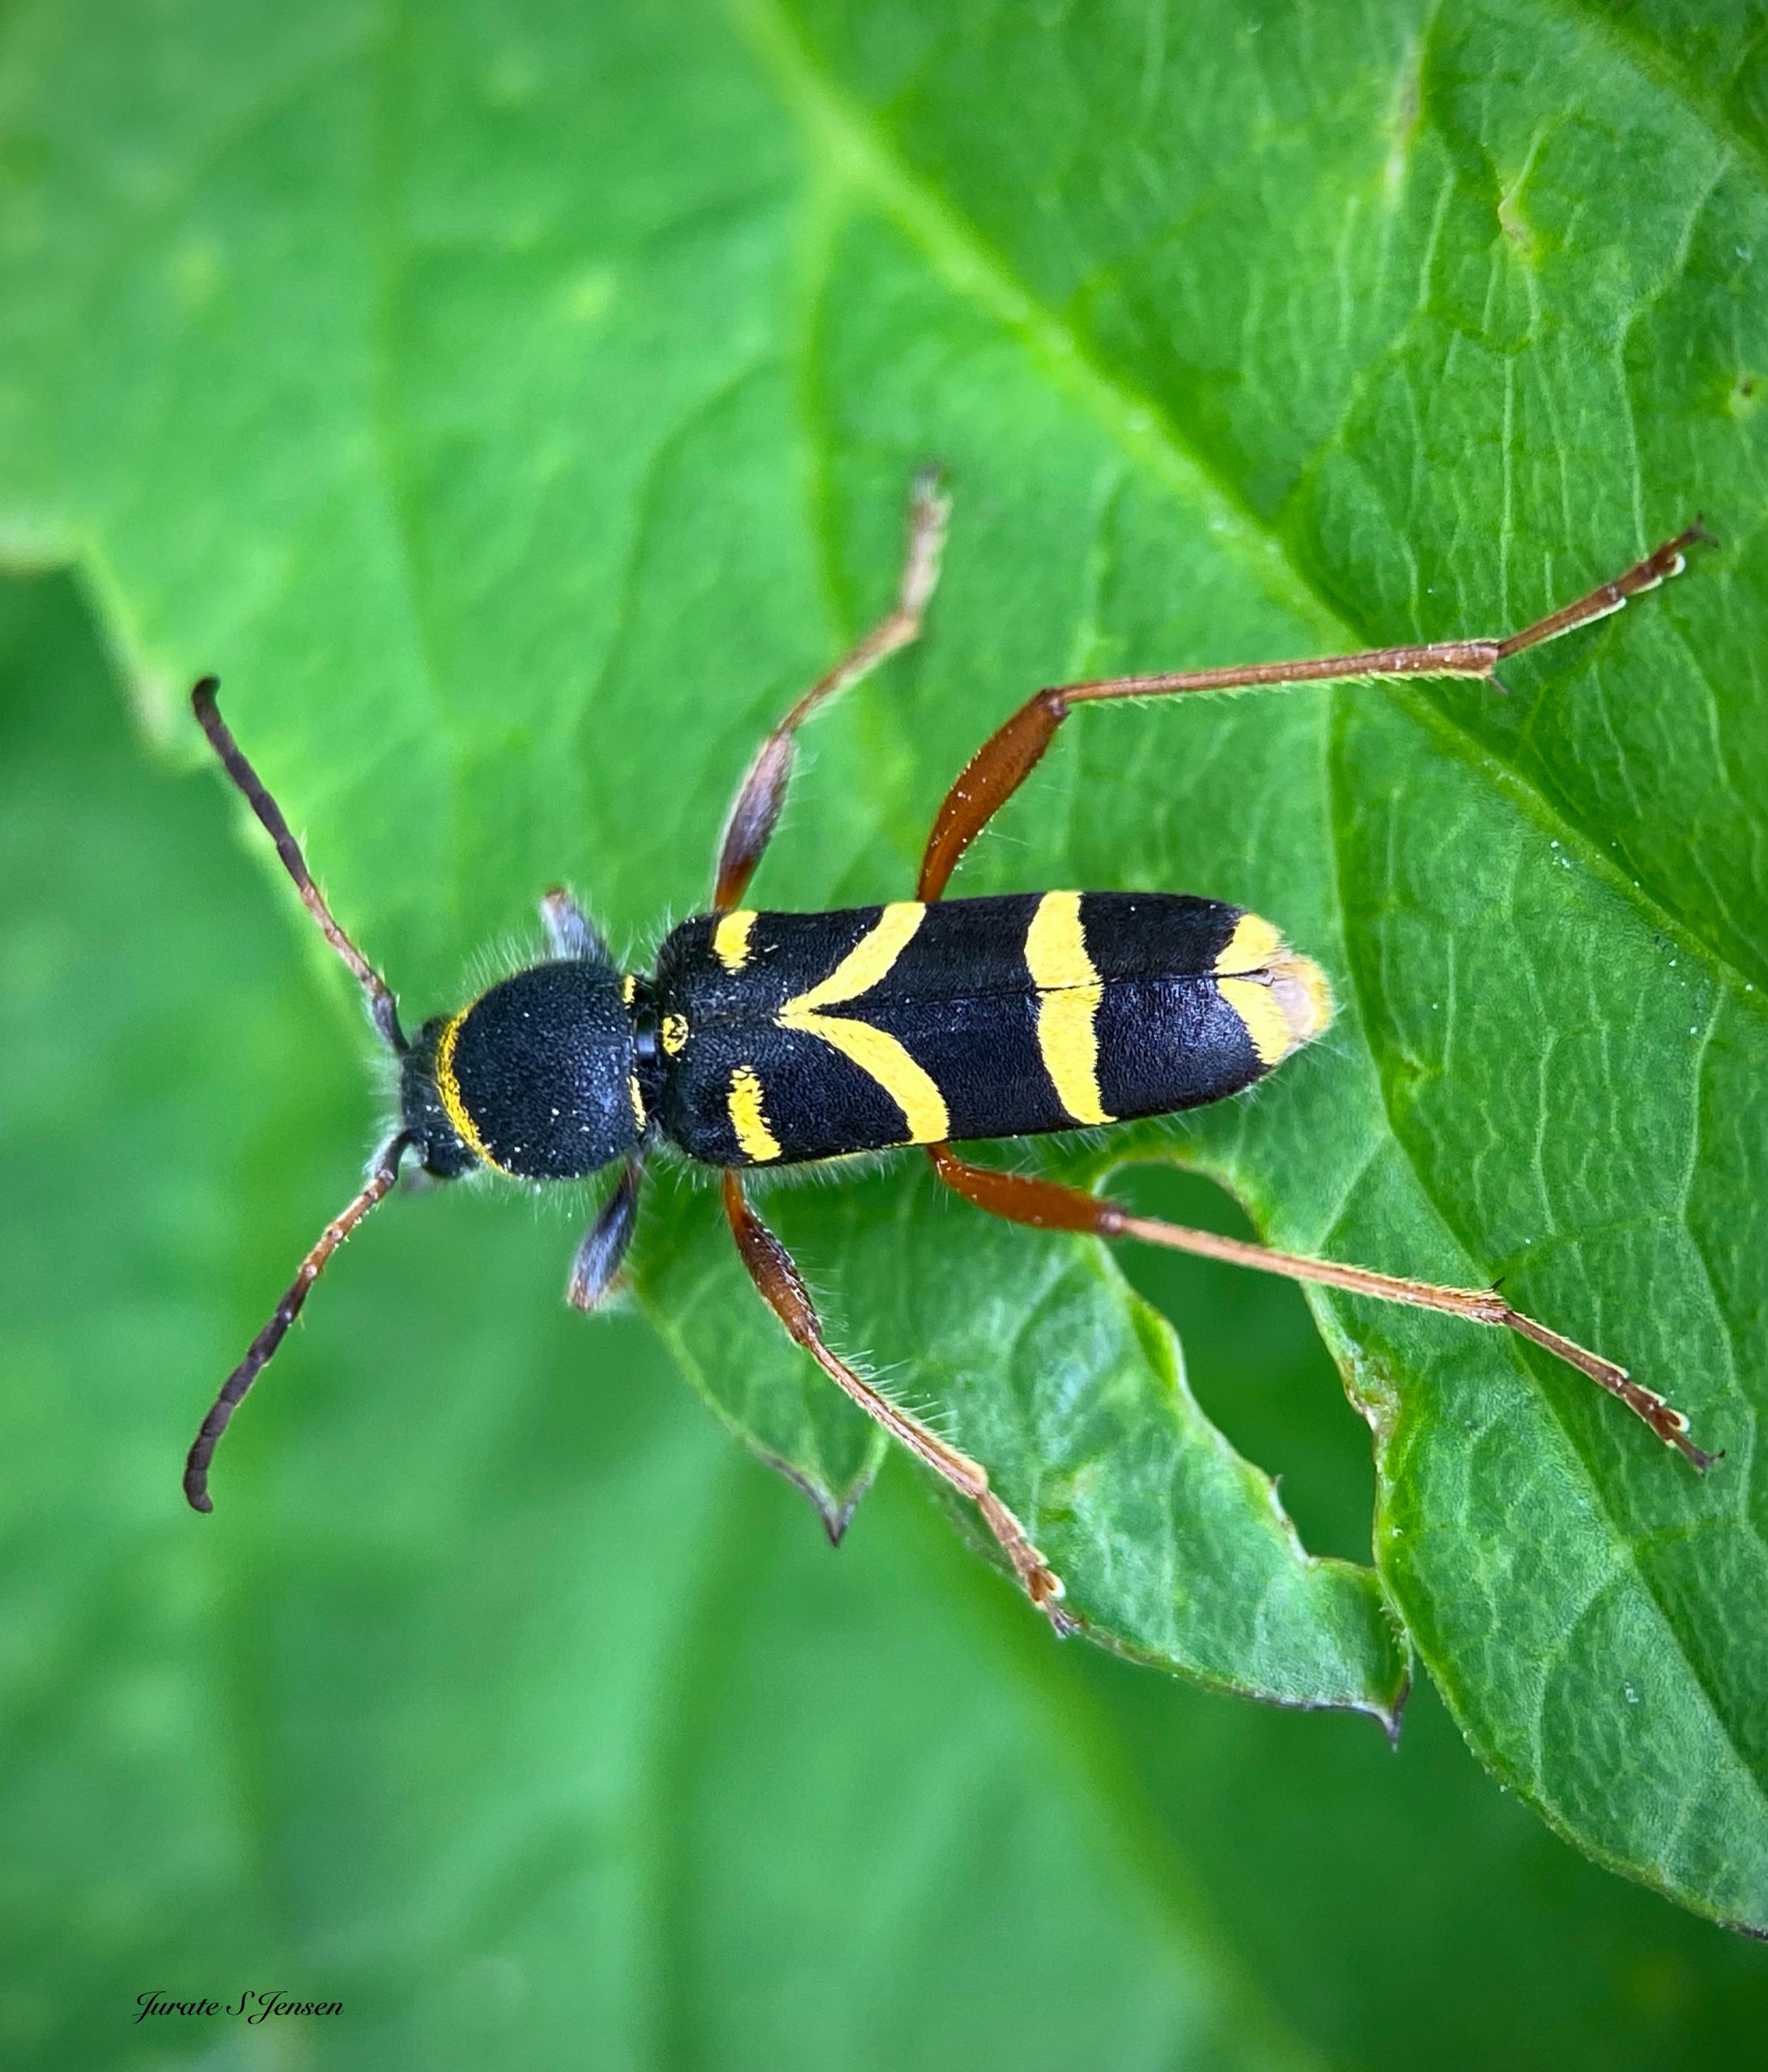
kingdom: Animalia
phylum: Arthropoda
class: Insecta
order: Coleoptera
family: Cerambycidae
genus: Clytus
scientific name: Clytus arietis
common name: Lille hvepsebuk
